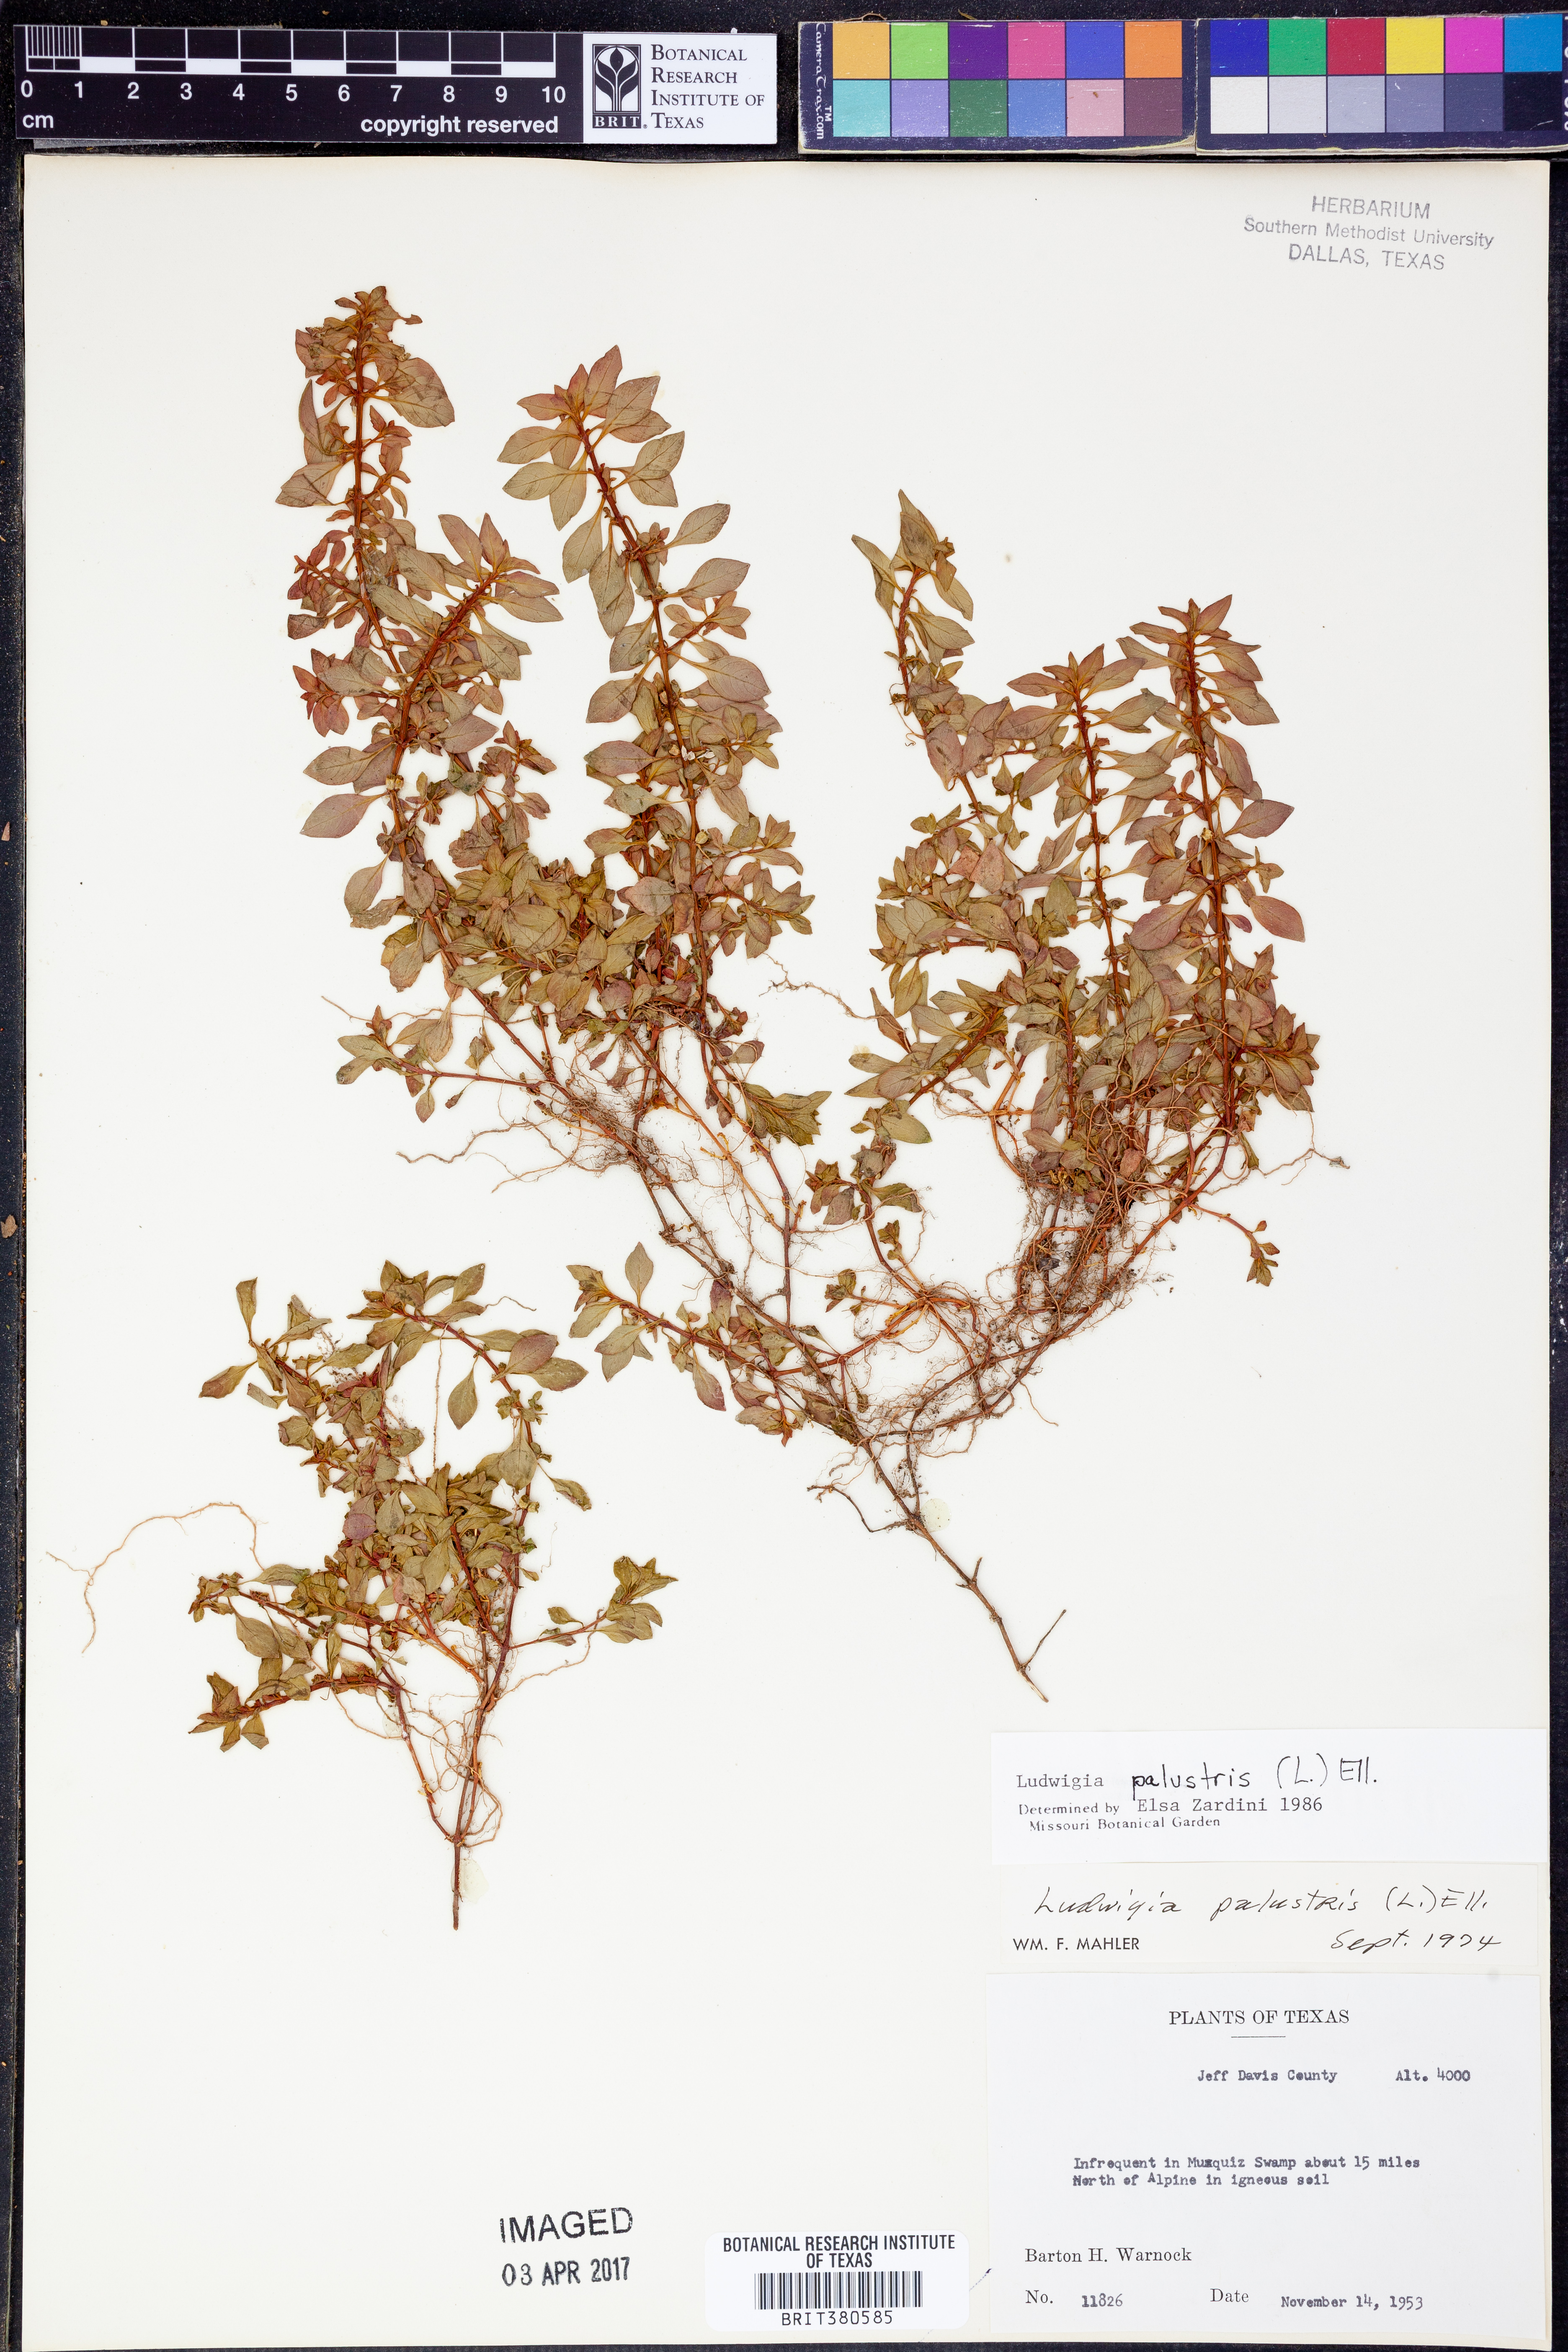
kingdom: Plantae
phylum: Tracheophyta
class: Magnoliopsida
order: Myrtales
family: Onagraceae
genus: Ludwigia
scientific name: Ludwigia palustris
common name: Hampshire-purslane
